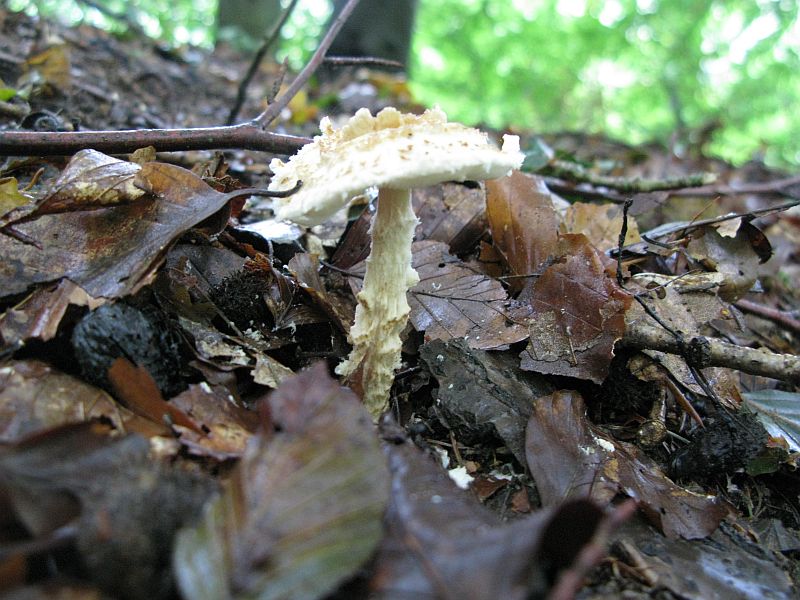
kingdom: Fungi
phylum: Basidiomycota
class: Agaricomycetes
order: Agaricales
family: Agaricaceae
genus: Lepiota
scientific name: Lepiota magnispora
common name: gulfnugget parasolhat
